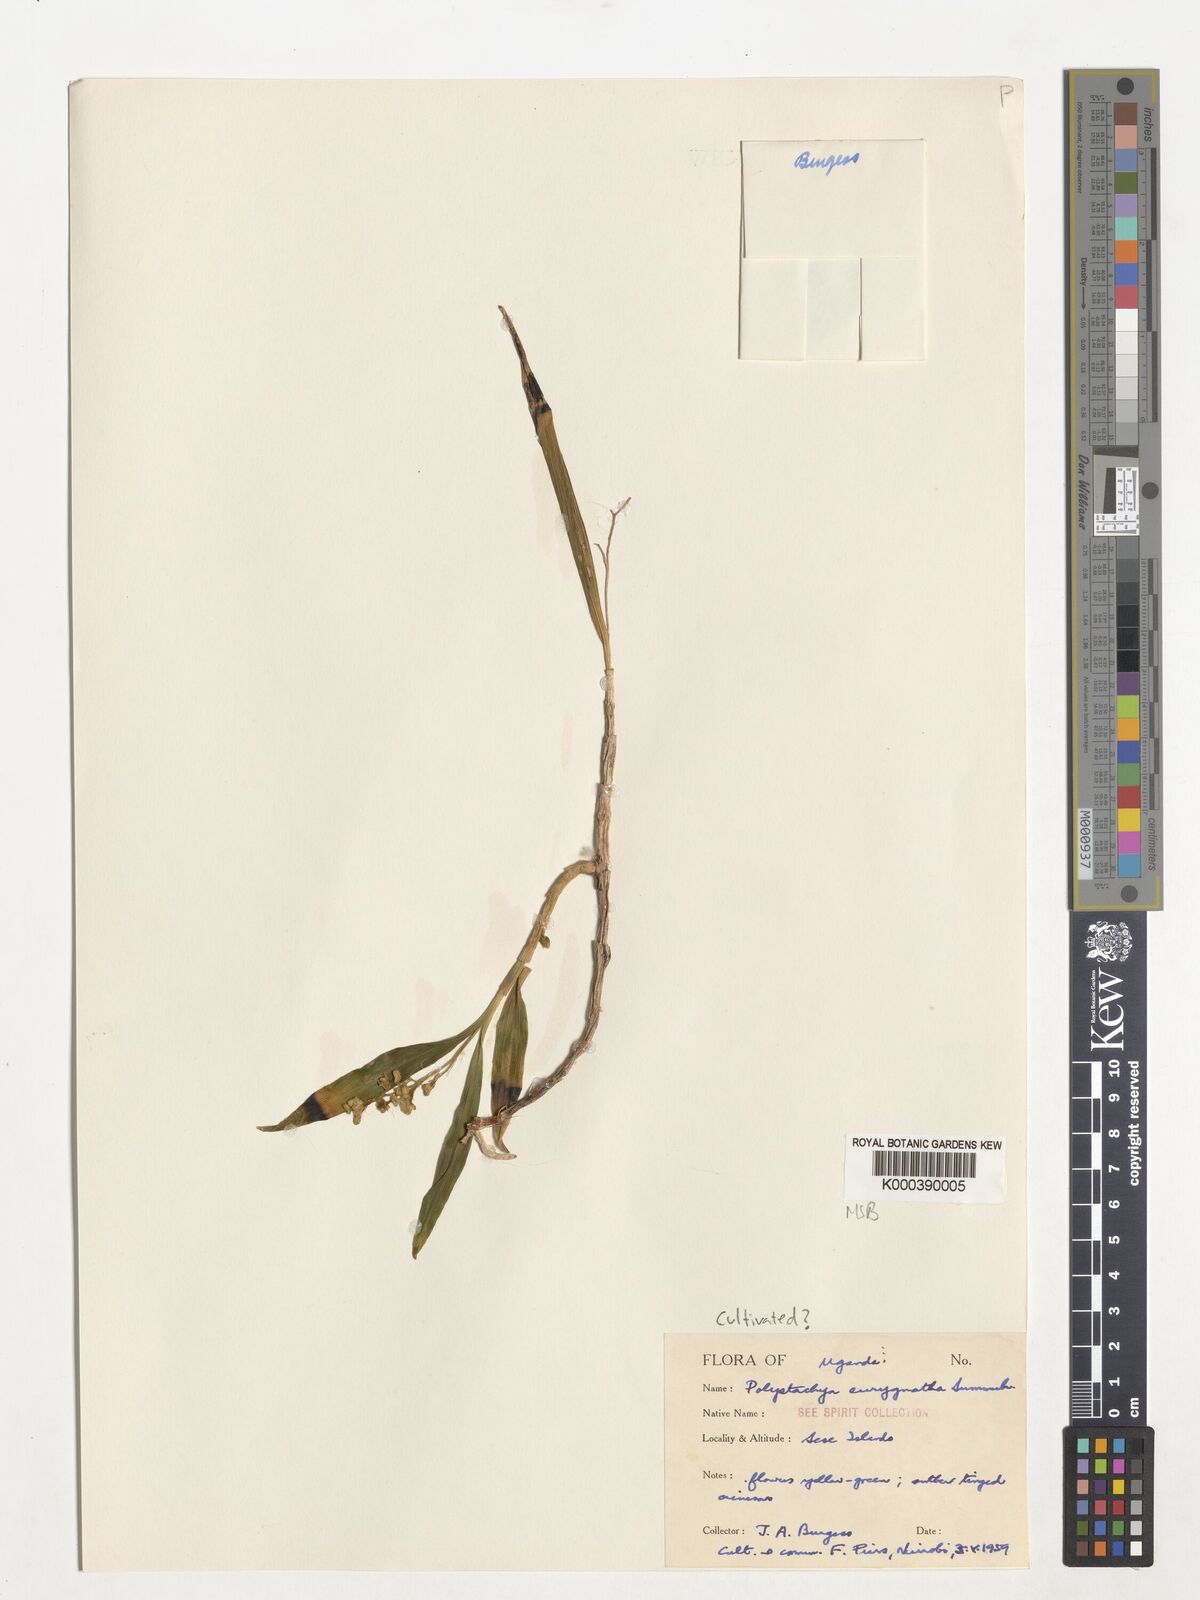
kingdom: Plantae
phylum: Tracheophyta
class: Liliopsida
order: Asparagales
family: Orchidaceae
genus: Polystachya
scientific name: Polystachya eurygnatha
